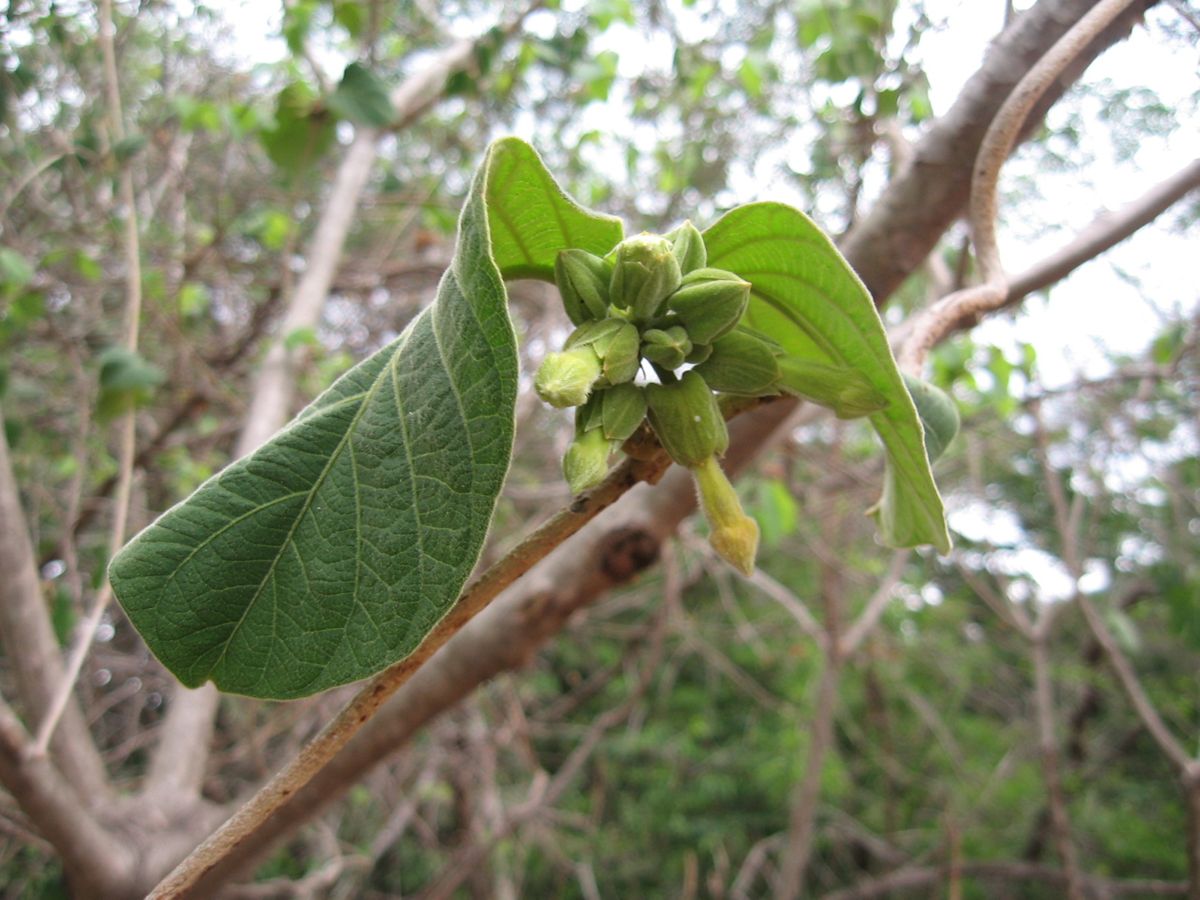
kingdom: Plantae
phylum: Tracheophyta
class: Magnoliopsida
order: Gentianales
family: Apocynaceae
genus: Prestonia
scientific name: Prestonia mexicana
